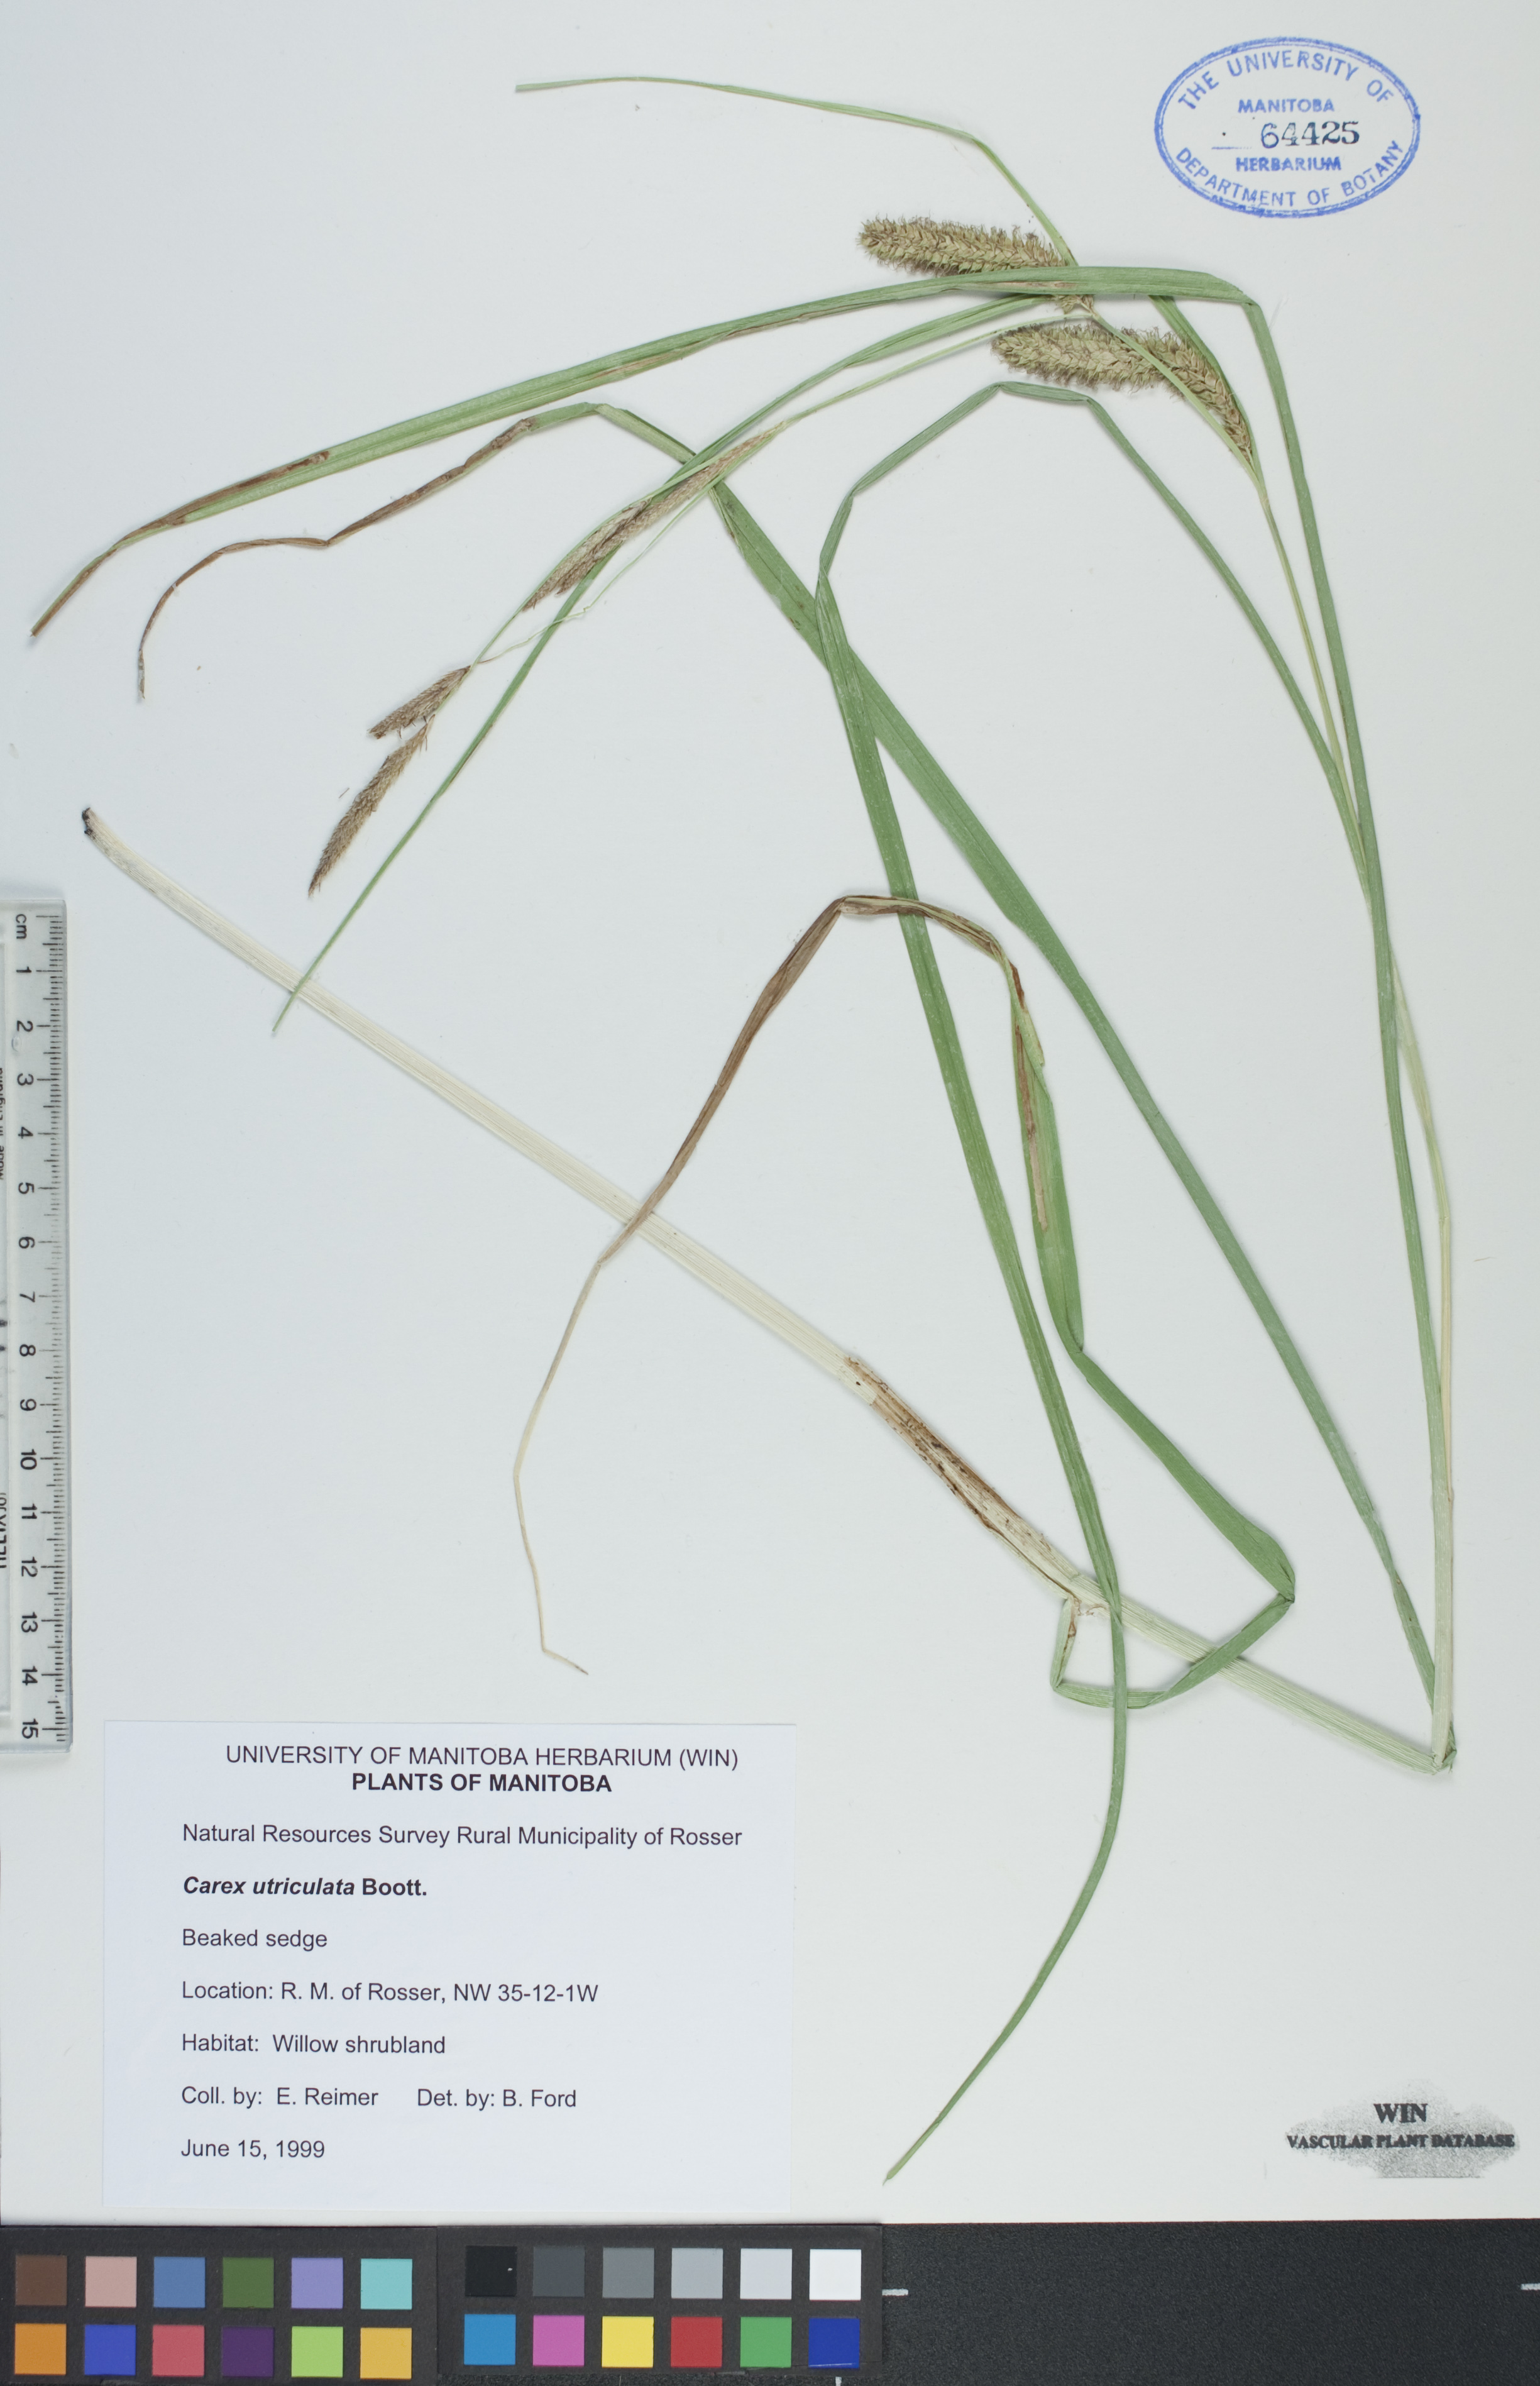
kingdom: Plantae
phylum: Tracheophyta
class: Liliopsida
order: Poales
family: Cyperaceae
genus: Carex
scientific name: Carex utriculata
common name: Beaked sedge
